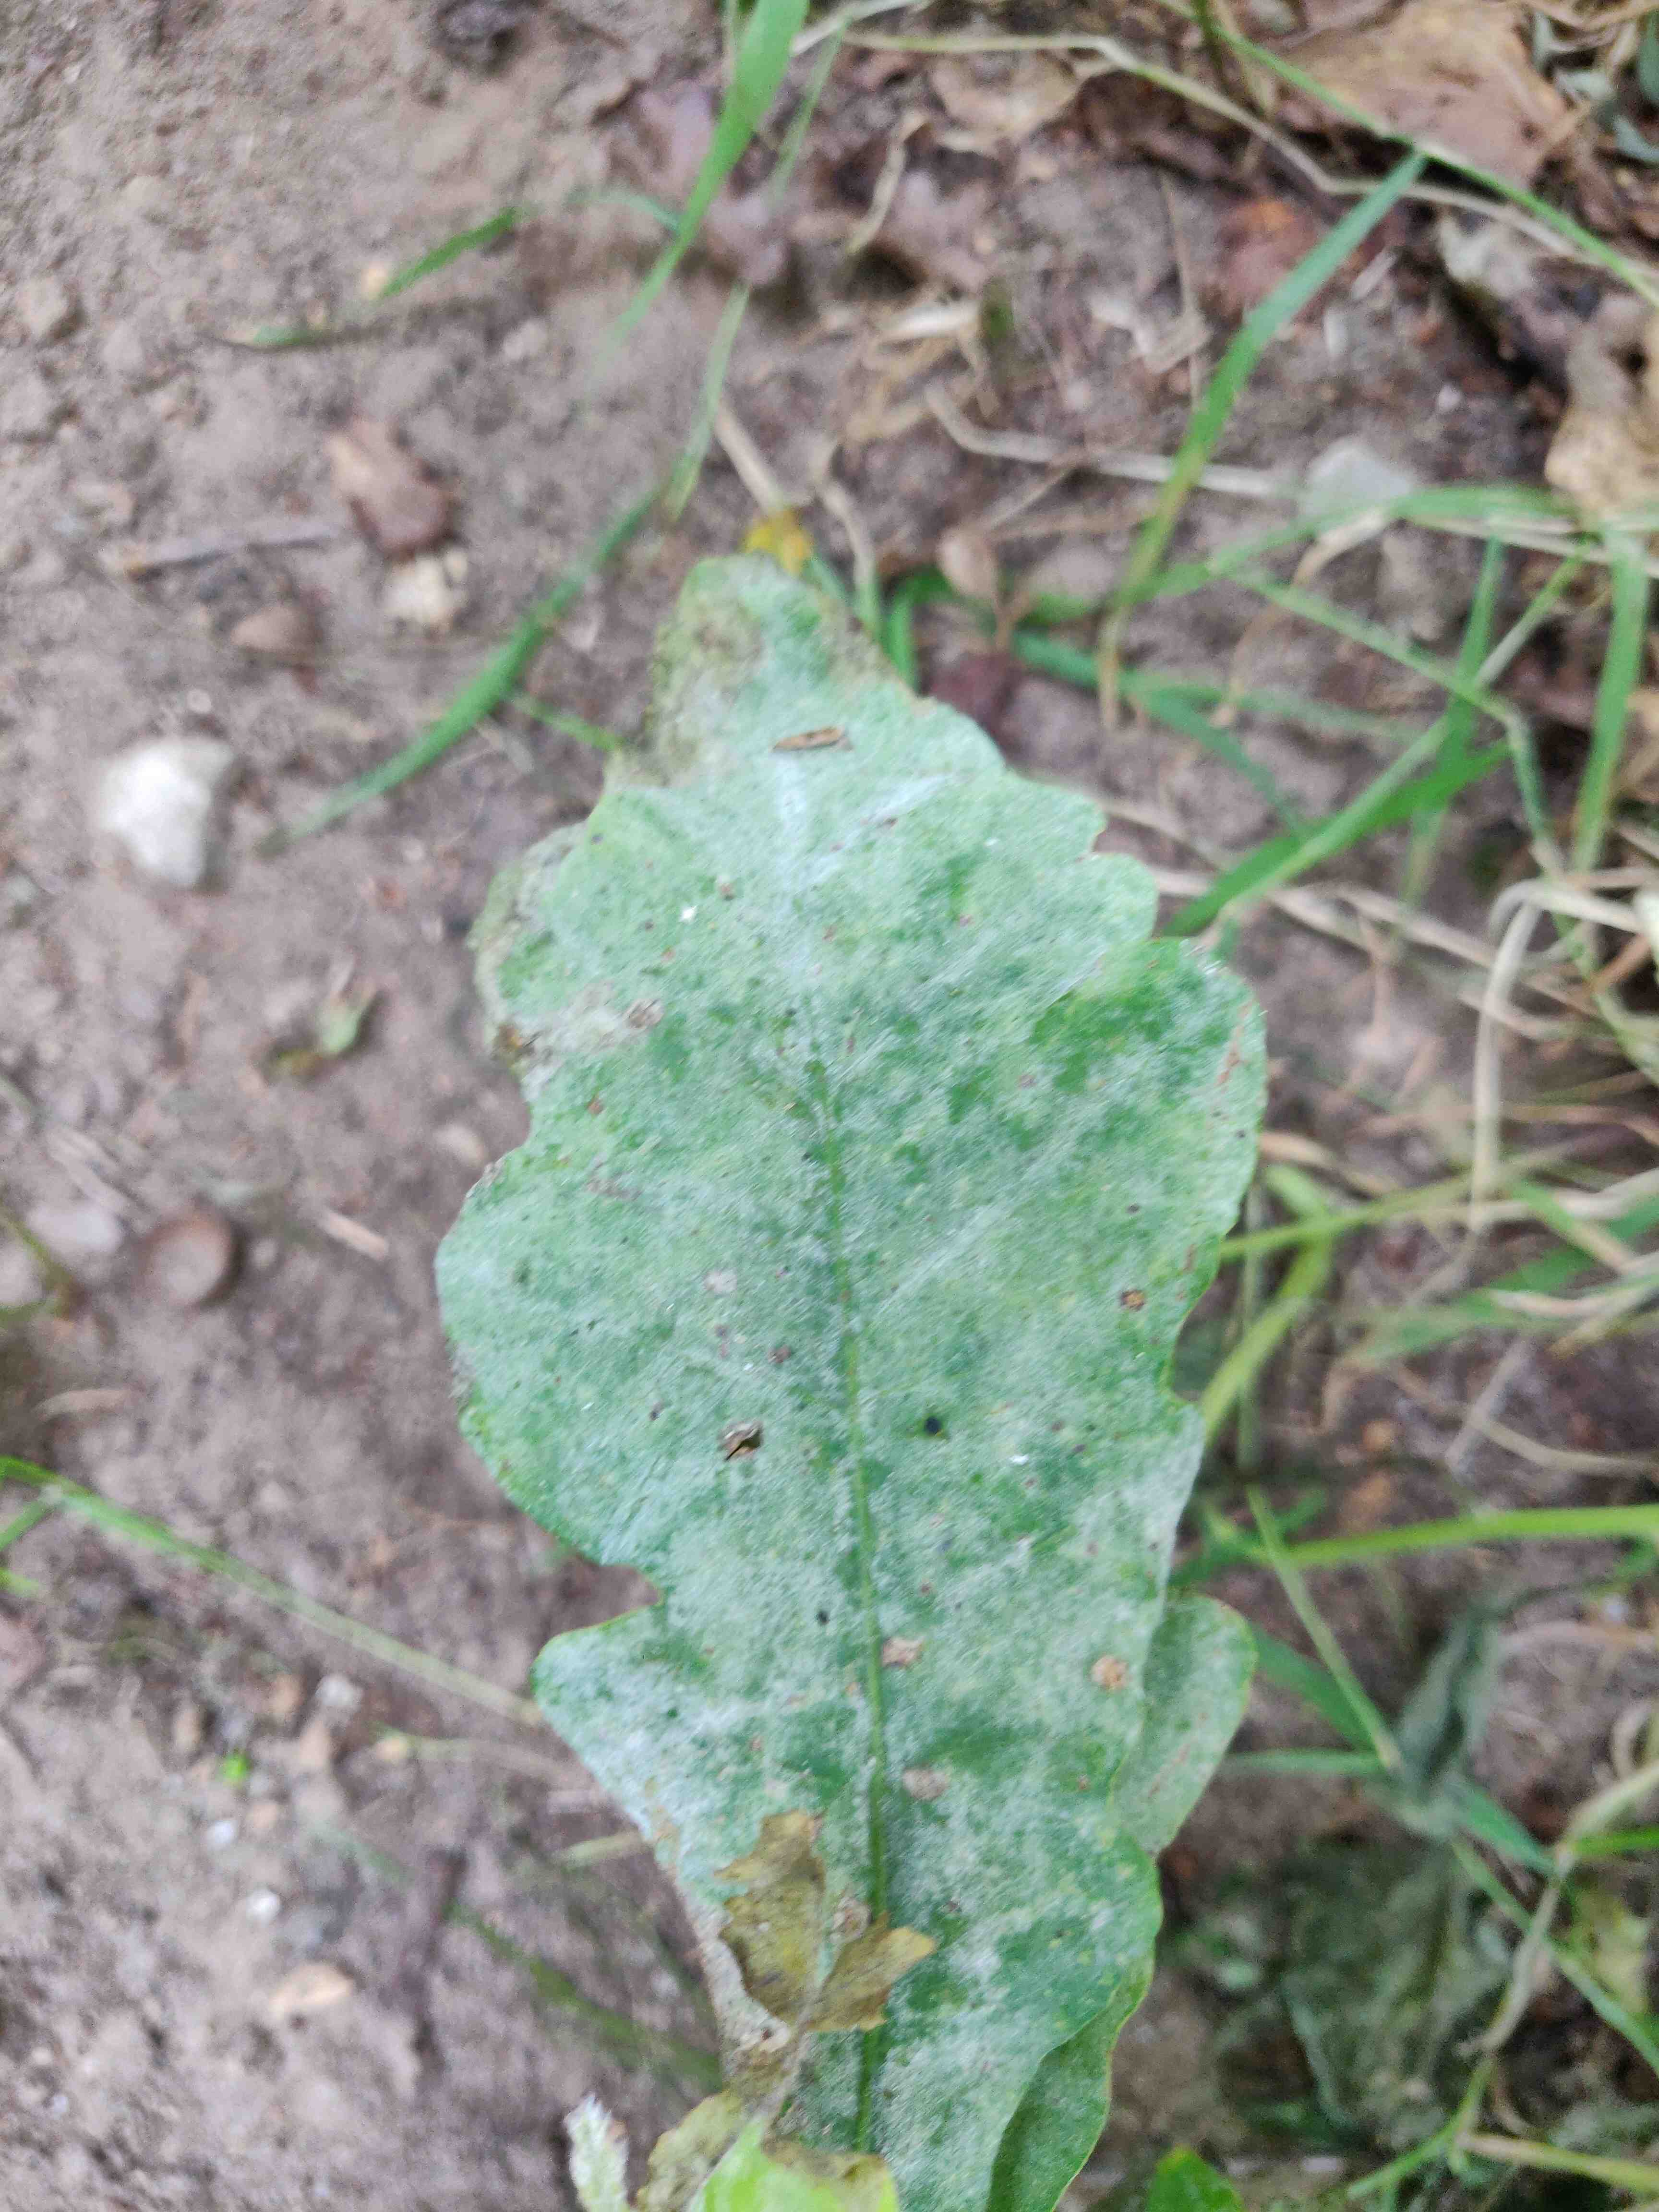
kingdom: Fungi
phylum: Ascomycota
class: Leotiomycetes
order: Helotiales
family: Erysiphaceae
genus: Erysiphe
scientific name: Erysiphe alphitoides
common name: ege-meldug
